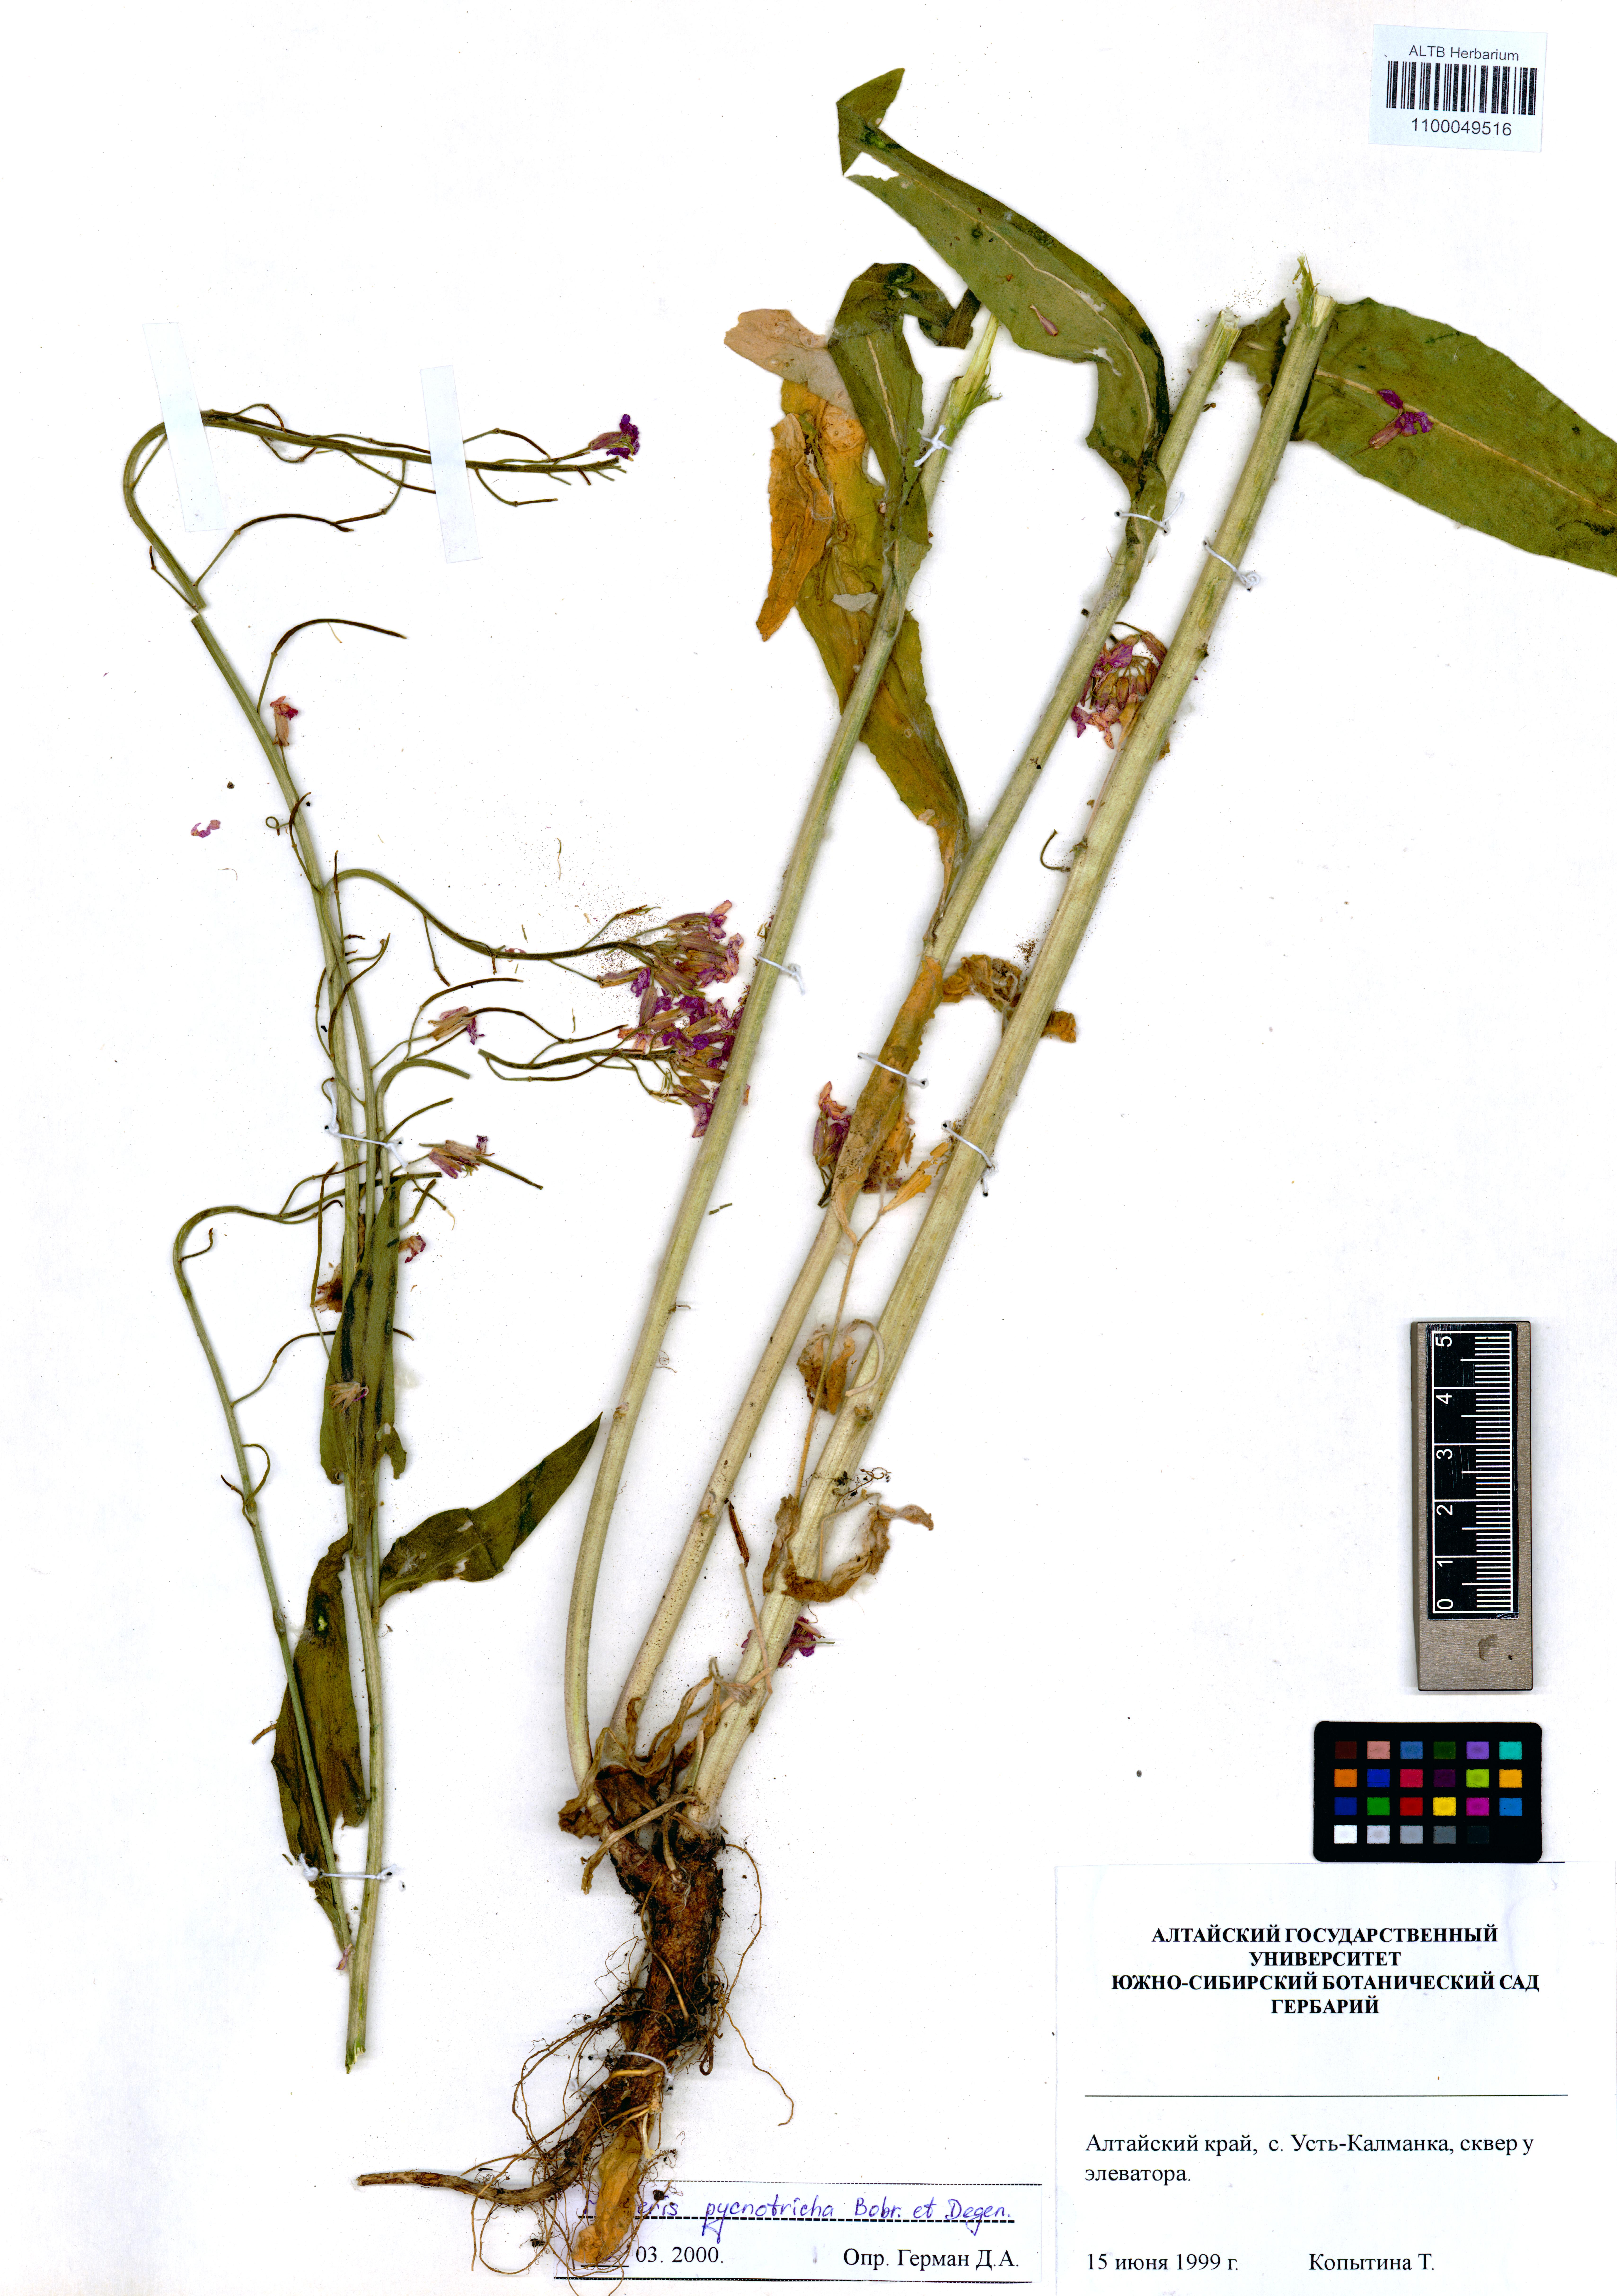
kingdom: Plantae
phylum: Tracheophyta
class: Magnoliopsida
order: Brassicales
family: Brassicaceae
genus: Hesperis
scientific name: Hesperis pycnotricha
